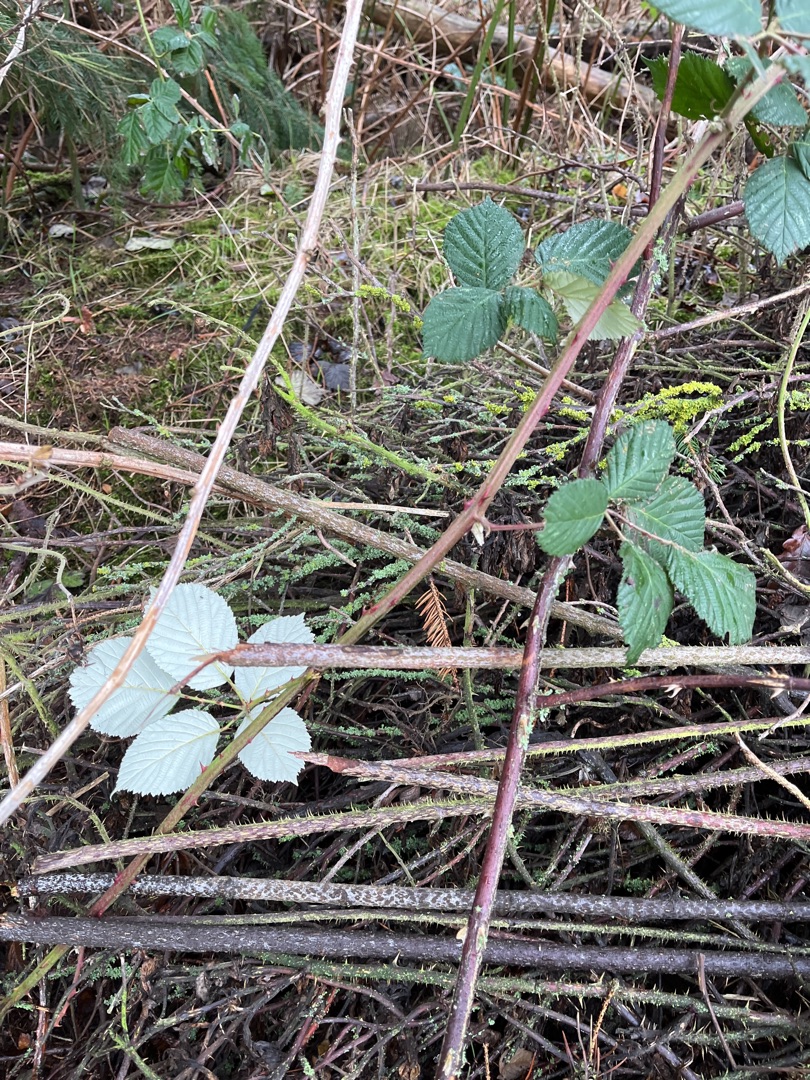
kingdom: Plantae
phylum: Tracheophyta
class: Magnoliopsida
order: Rosales
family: Rosaceae
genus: Rubus
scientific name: Rubus armeniacus
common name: Armensk brombær
